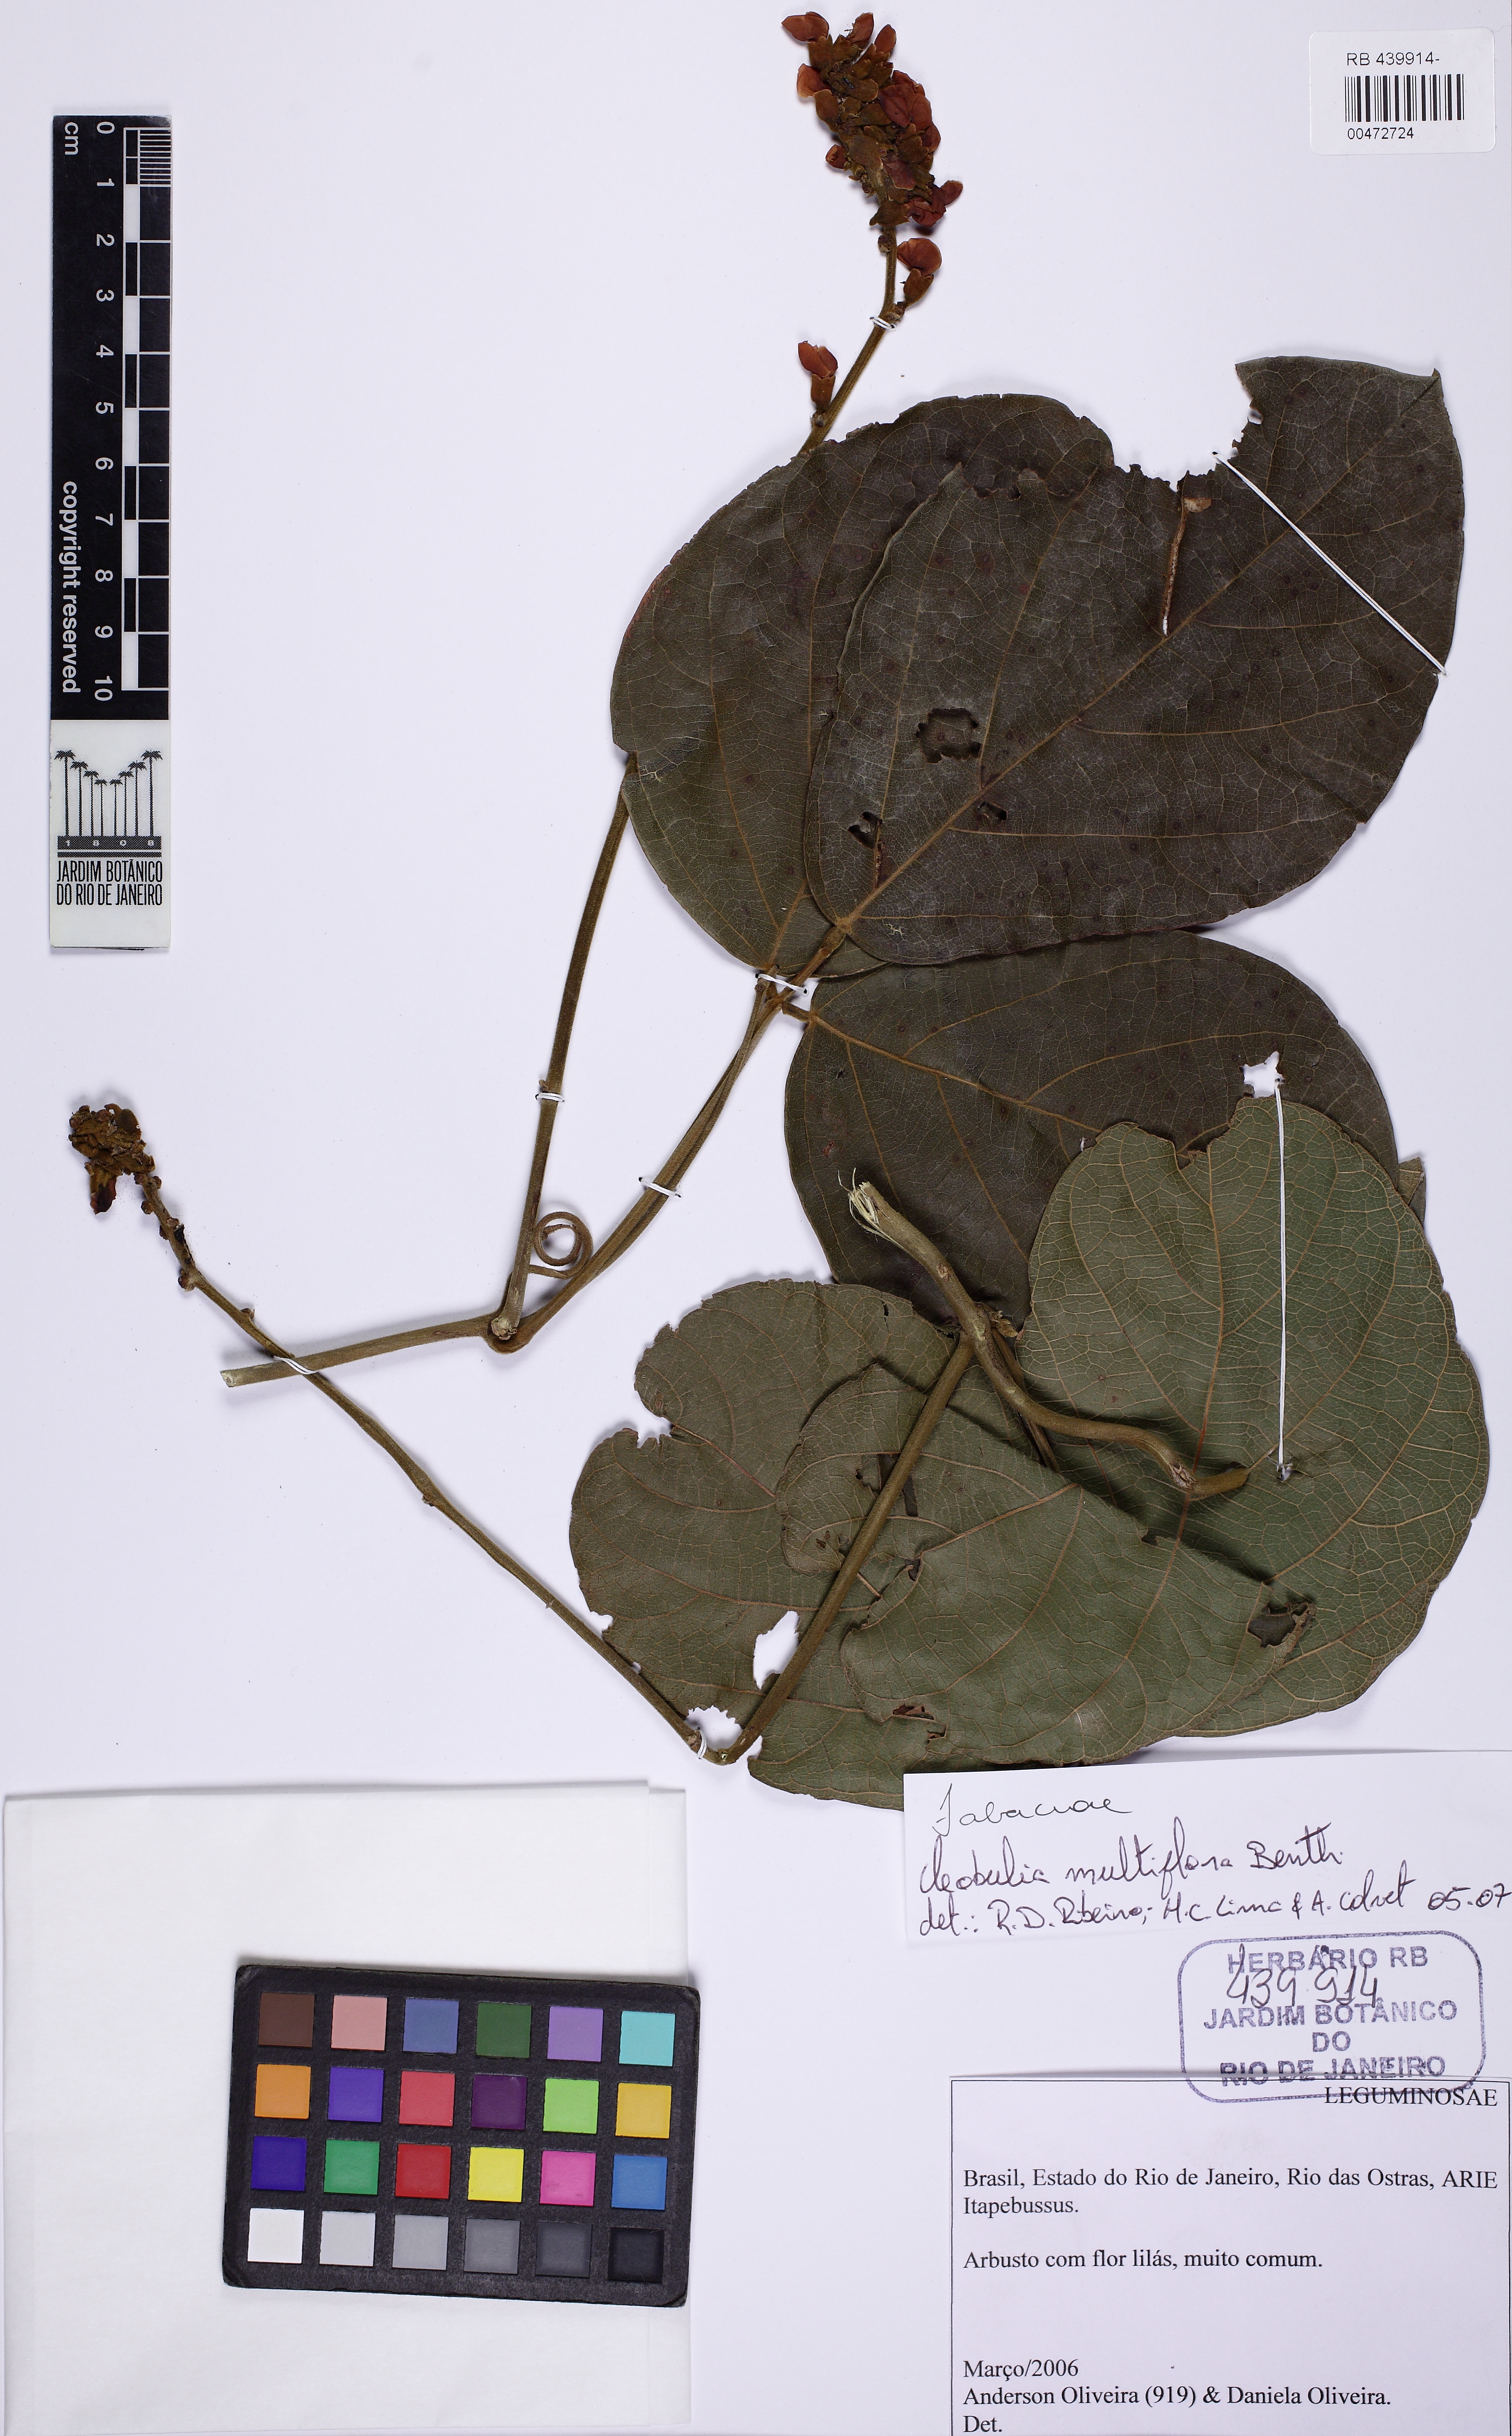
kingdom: Plantae
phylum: Tracheophyta
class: Magnoliopsida
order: Fabales
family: Fabaceae
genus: Cleobulia
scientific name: Cleobulia coccinea
